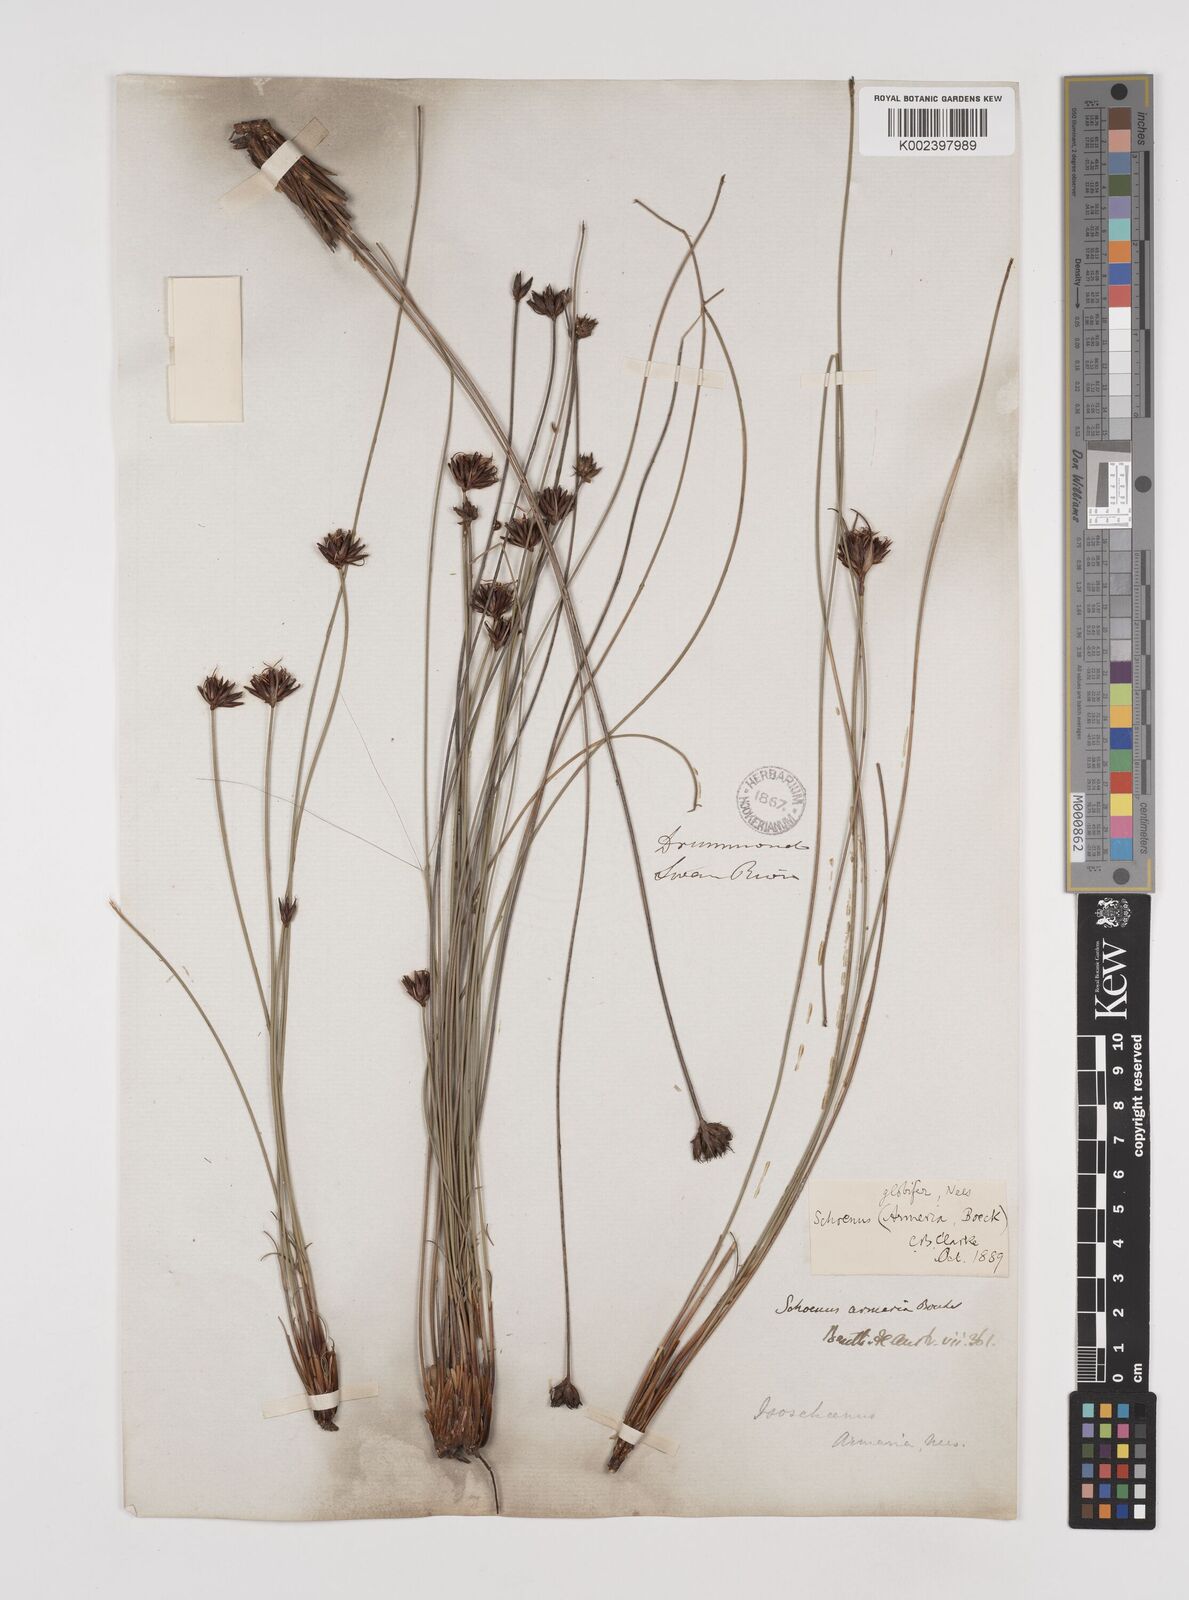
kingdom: Plantae
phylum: Tracheophyta
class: Liliopsida
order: Poales
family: Cyperaceae
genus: Schoenus
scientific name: Schoenus globifer
